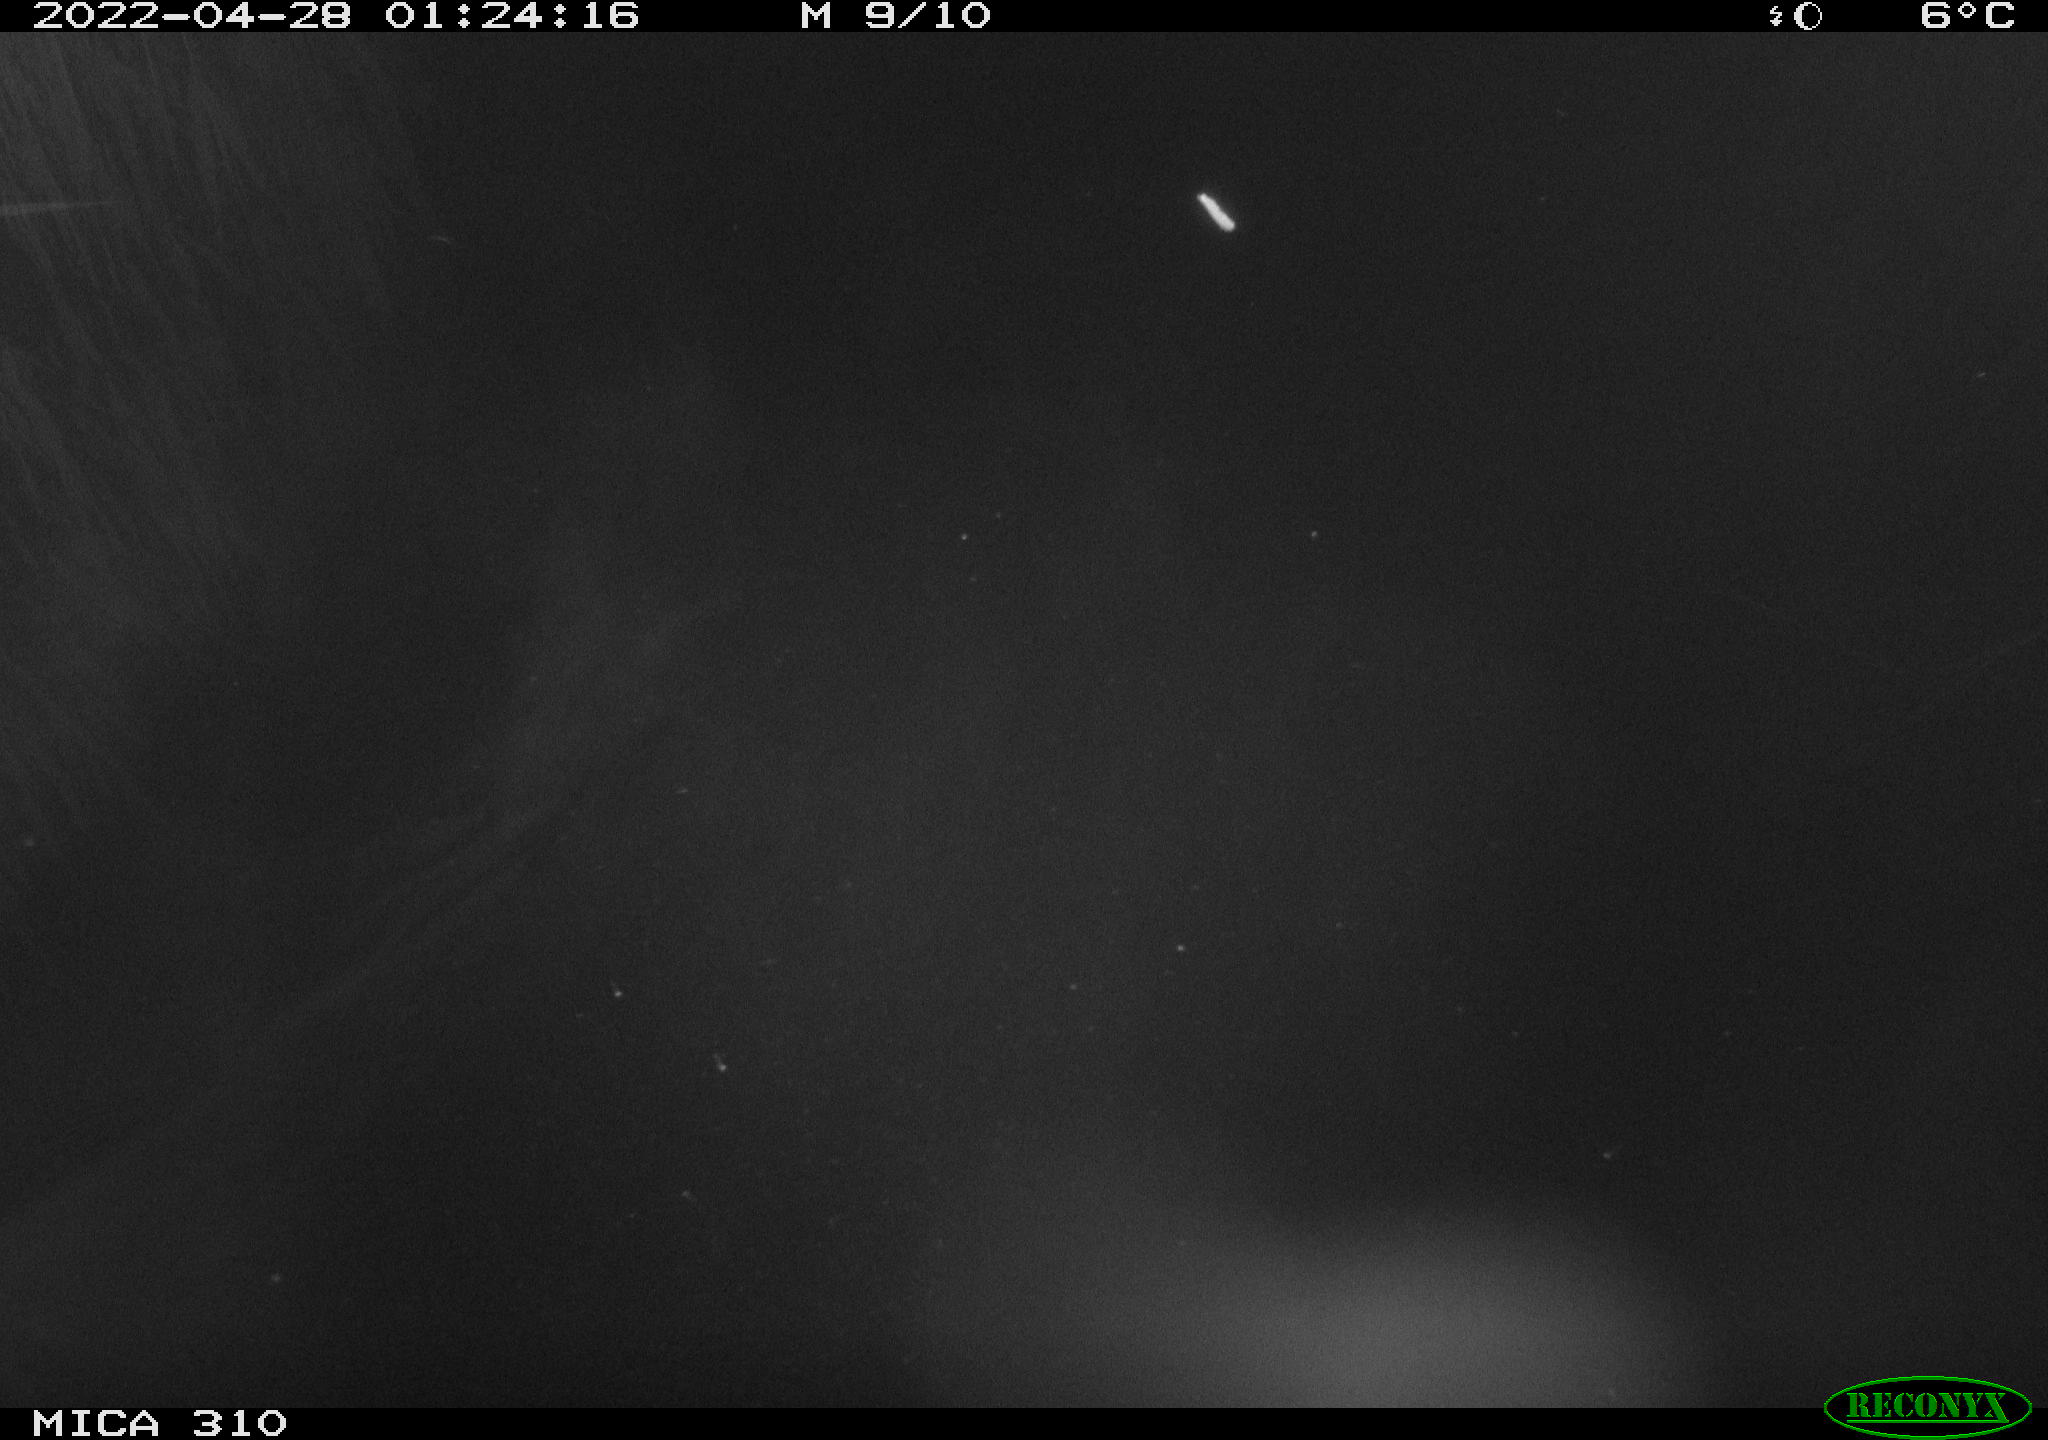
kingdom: Animalia
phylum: Chordata
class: Aves
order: Anseriformes
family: Anatidae
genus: Anas
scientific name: Anas platyrhynchos
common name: Mallard
